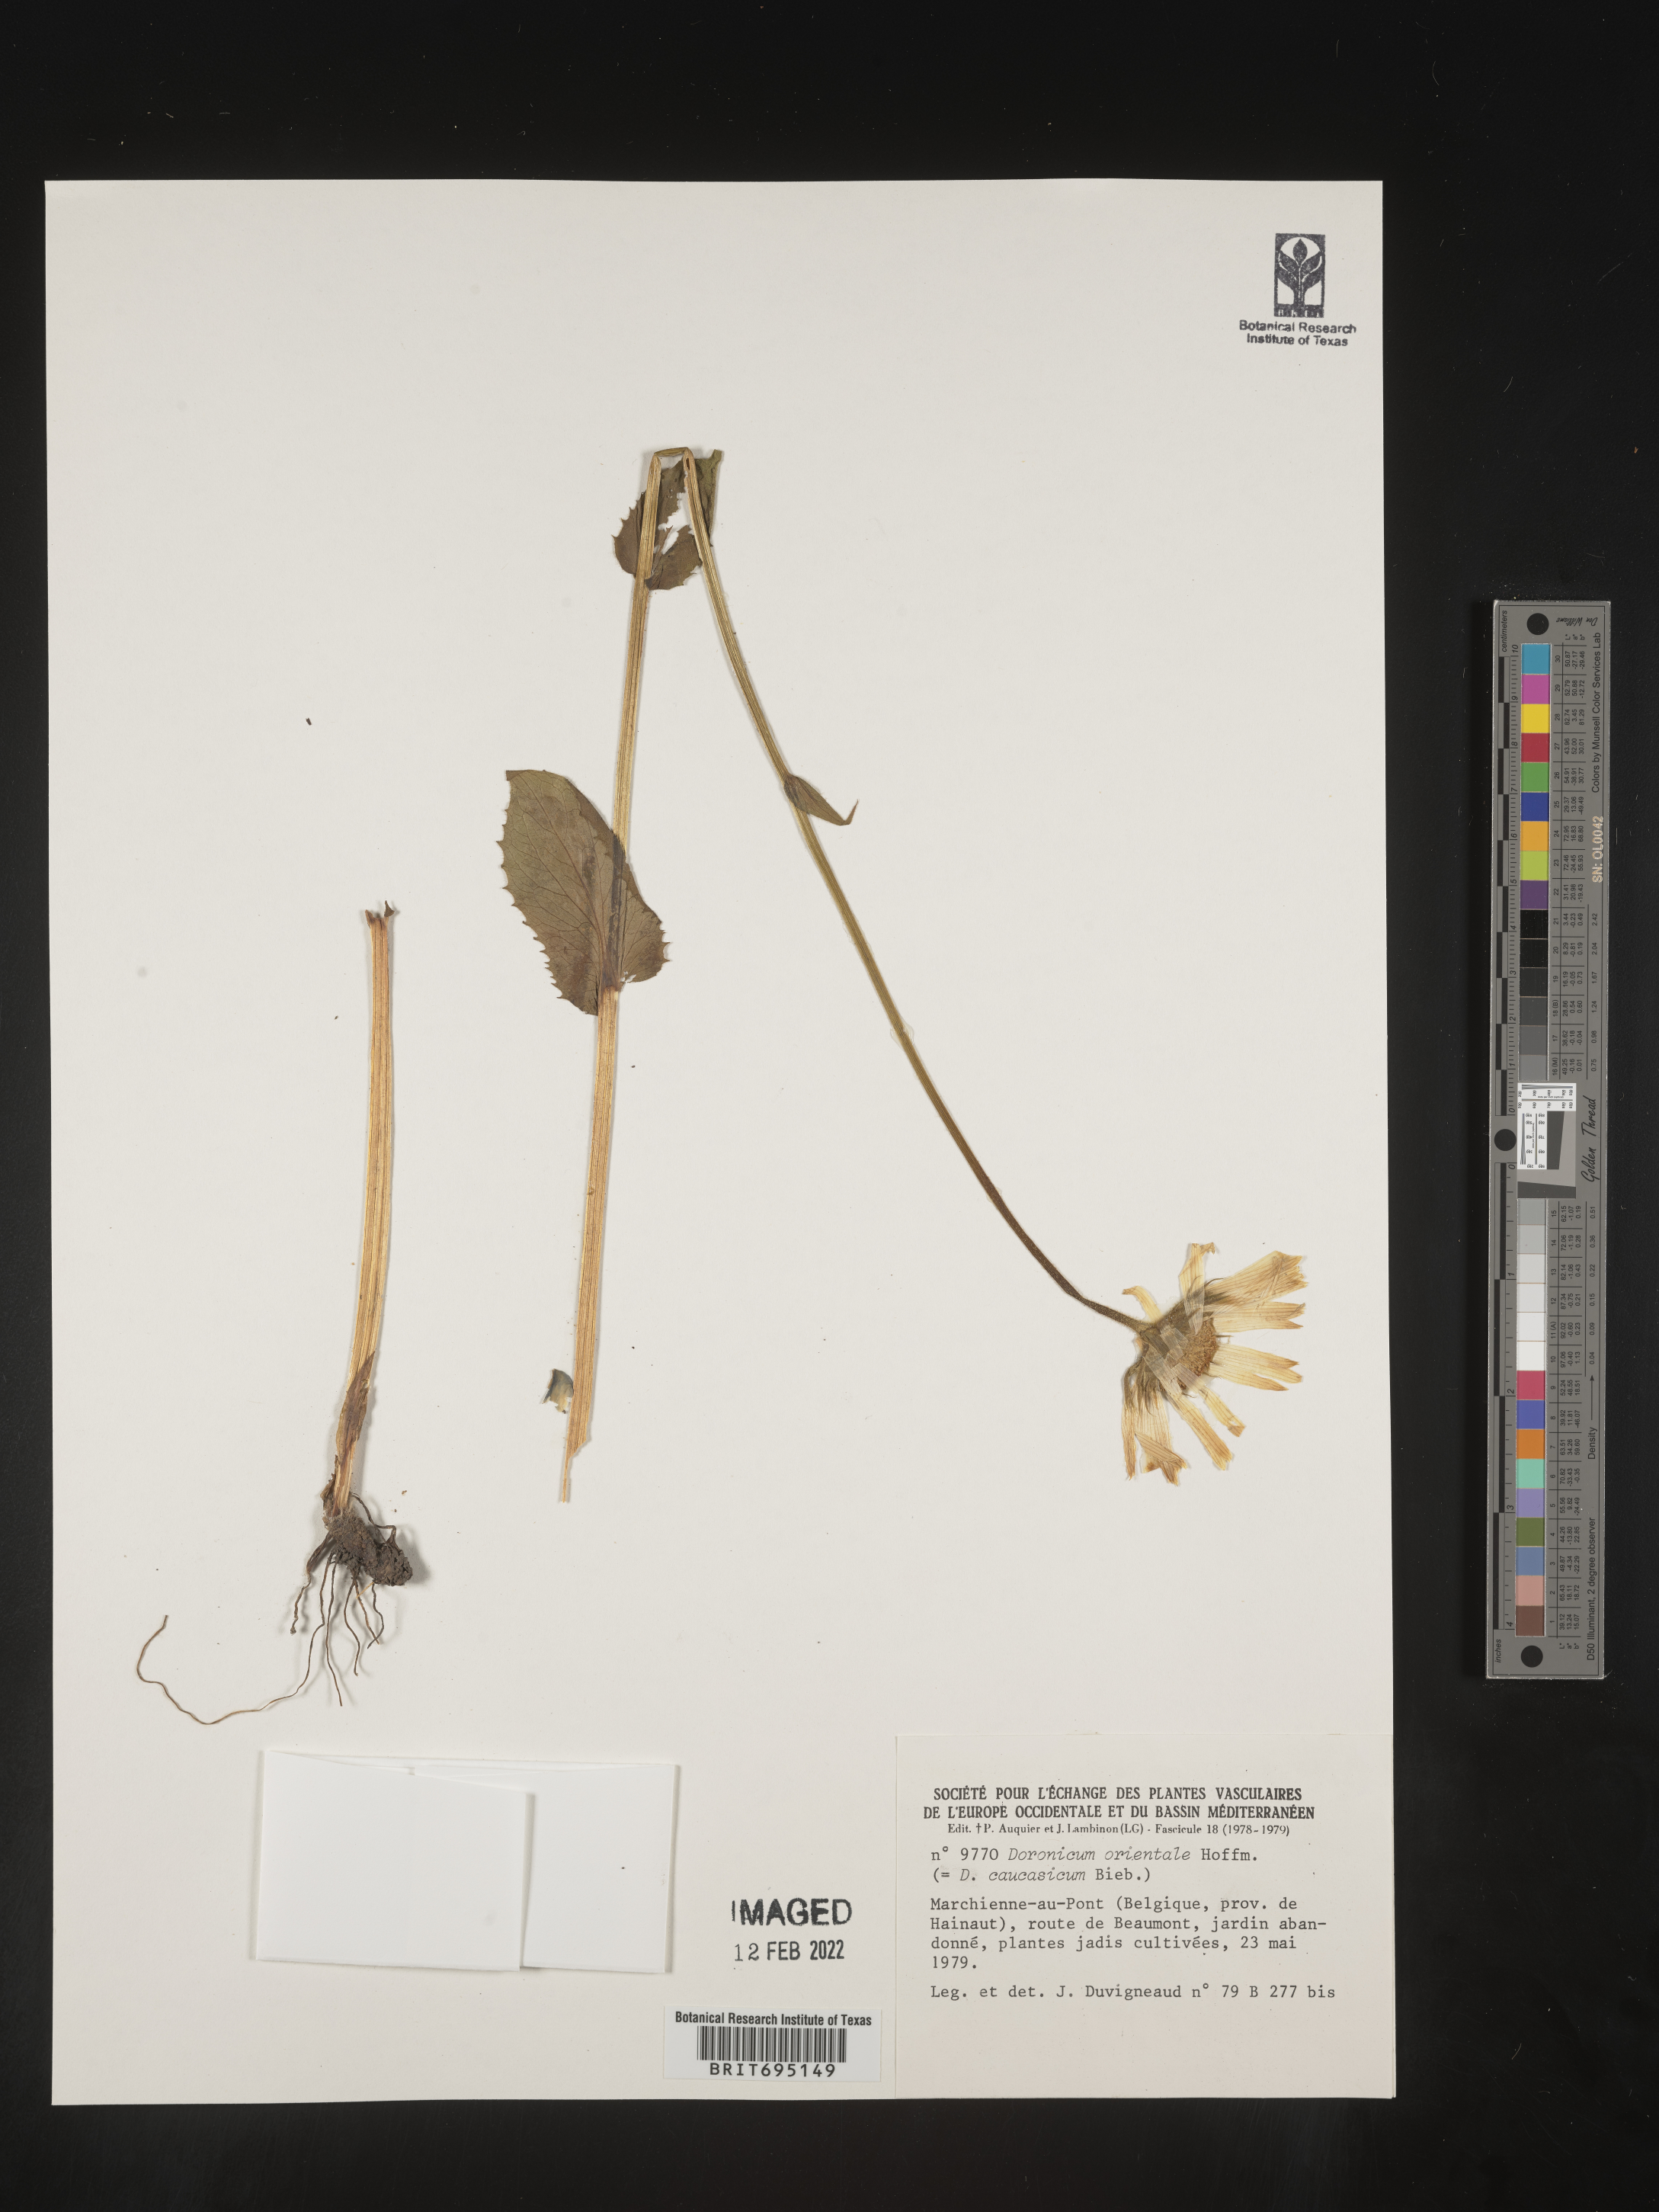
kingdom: Plantae
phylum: Tracheophyta
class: Magnoliopsida
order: Asterales
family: Asteraceae
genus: Doronicum
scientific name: Doronicum
